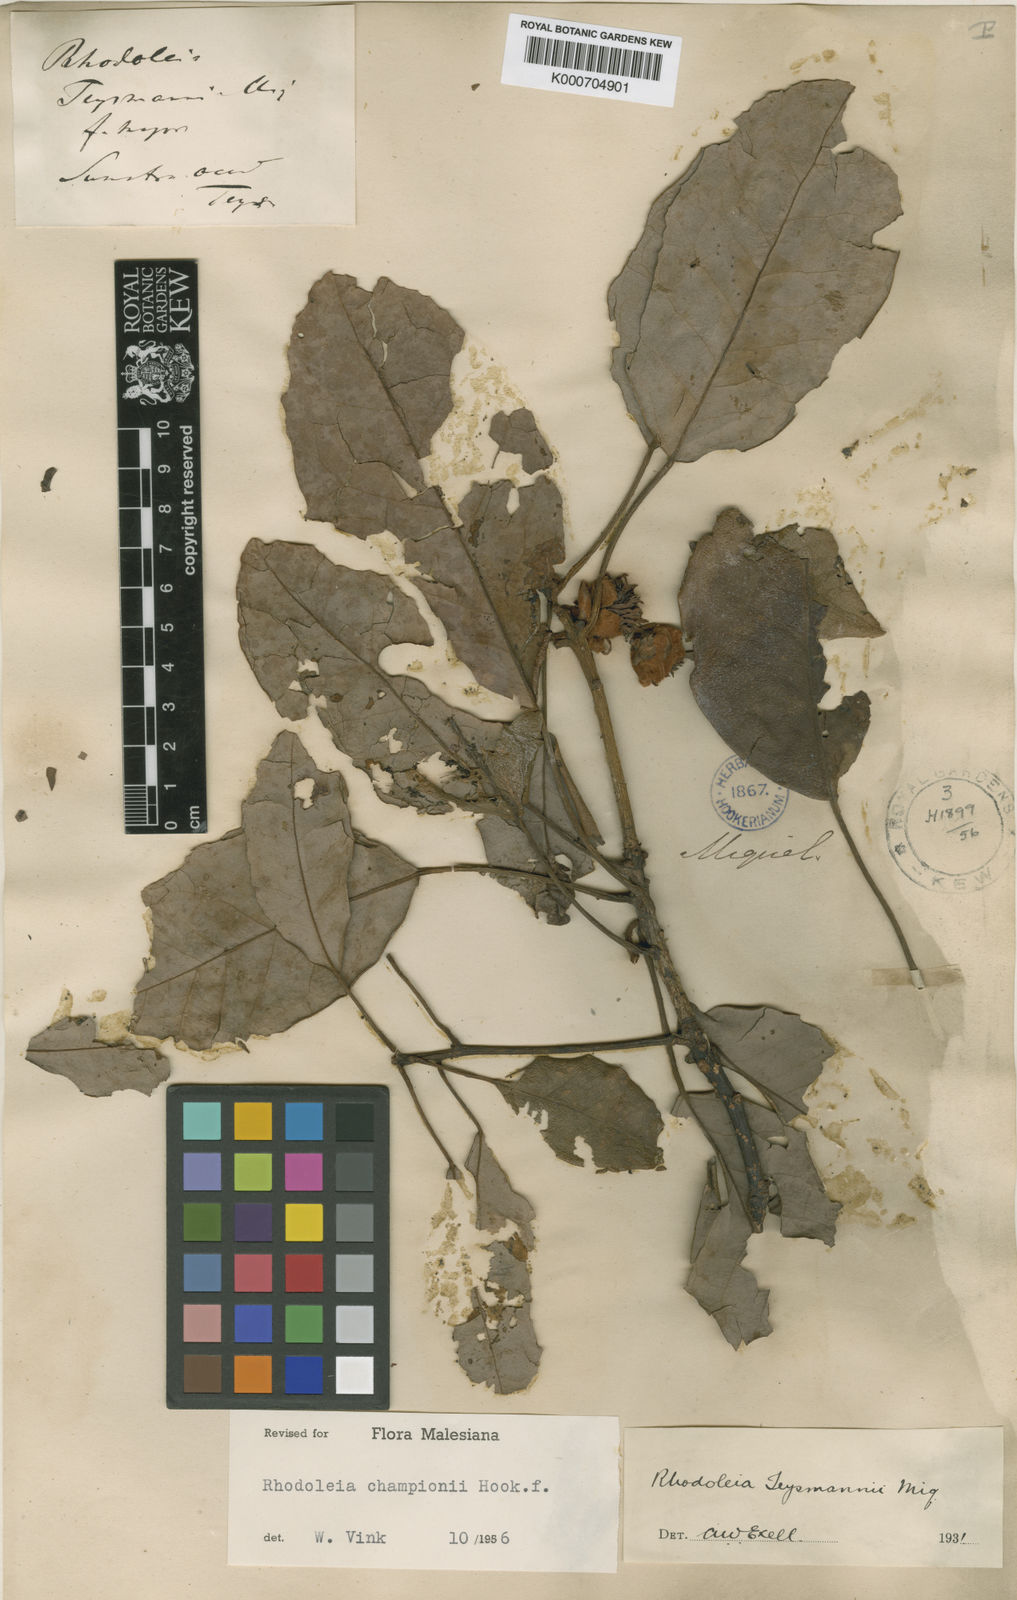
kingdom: Plantae
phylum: Tracheophyta
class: Magnoliopsida
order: Saxifragales
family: Hamamelidaceae
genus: Rhodoleia
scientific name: Rhodoleia championii
